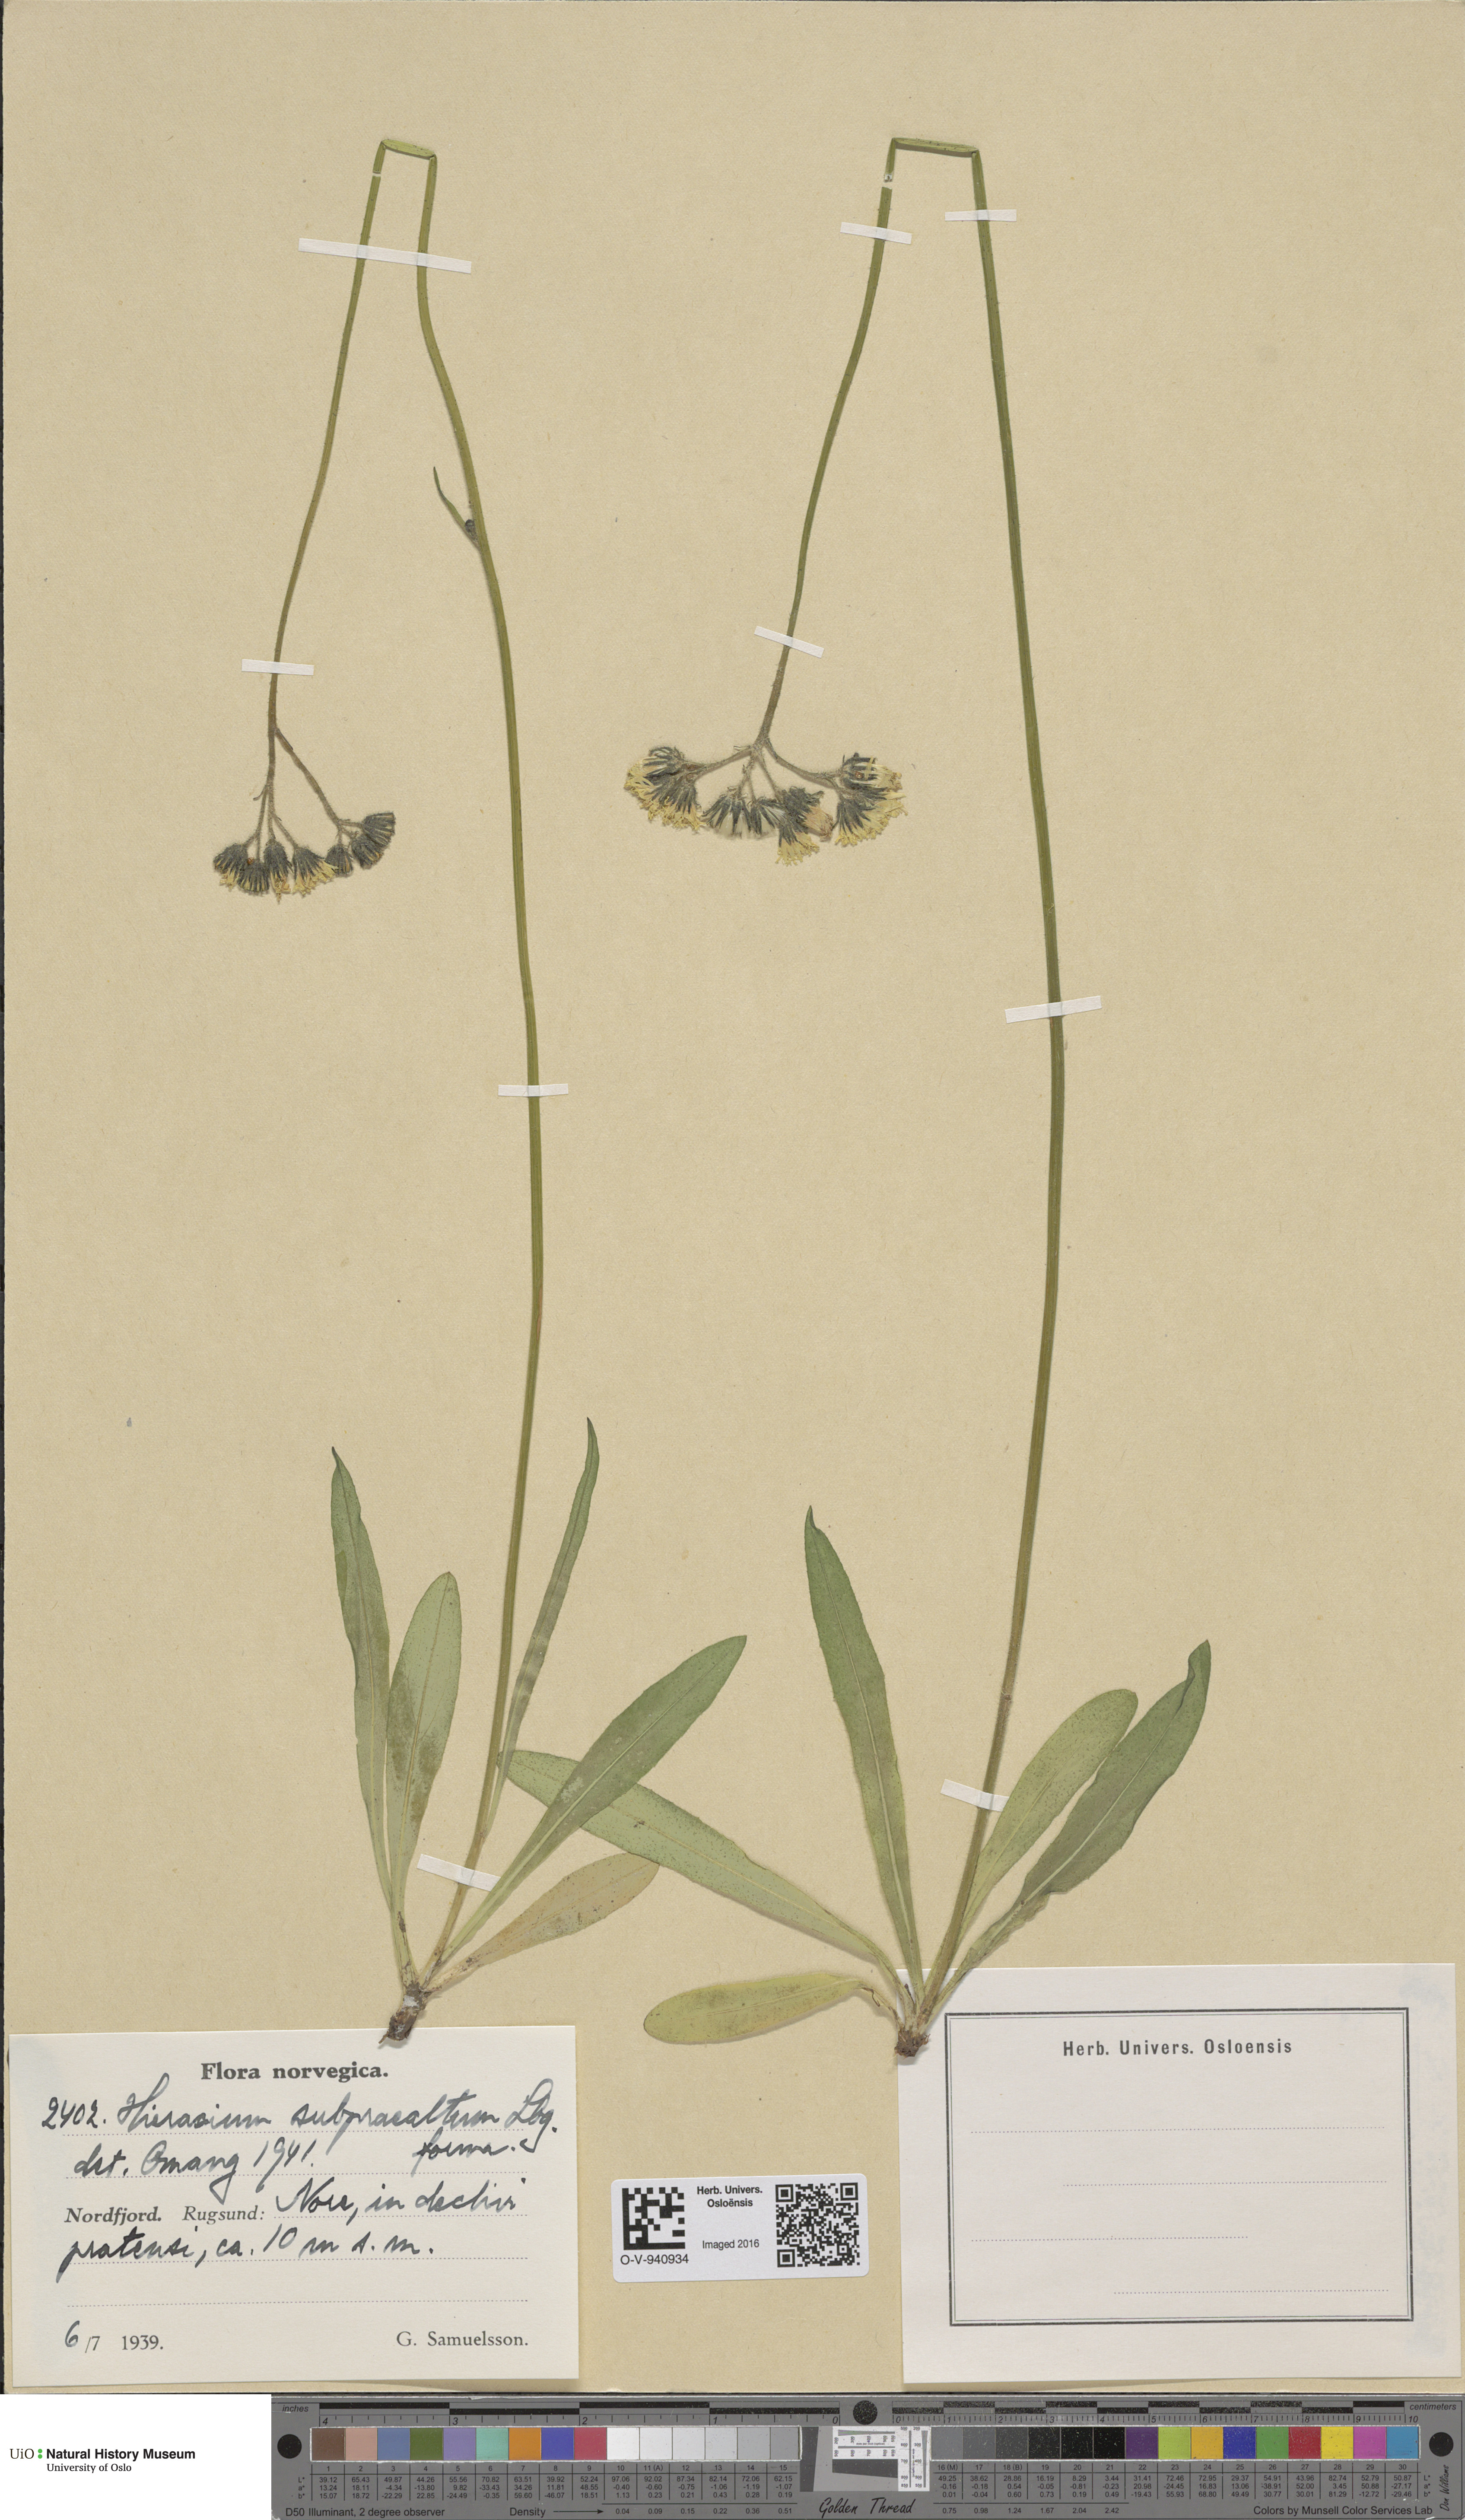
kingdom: Plantae
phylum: Tracheophyta
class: Magnoliopsida
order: Asterales
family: Asteraceae
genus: Pilosella
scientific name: Pilosella glomerata
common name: Queen devil hawkweed
